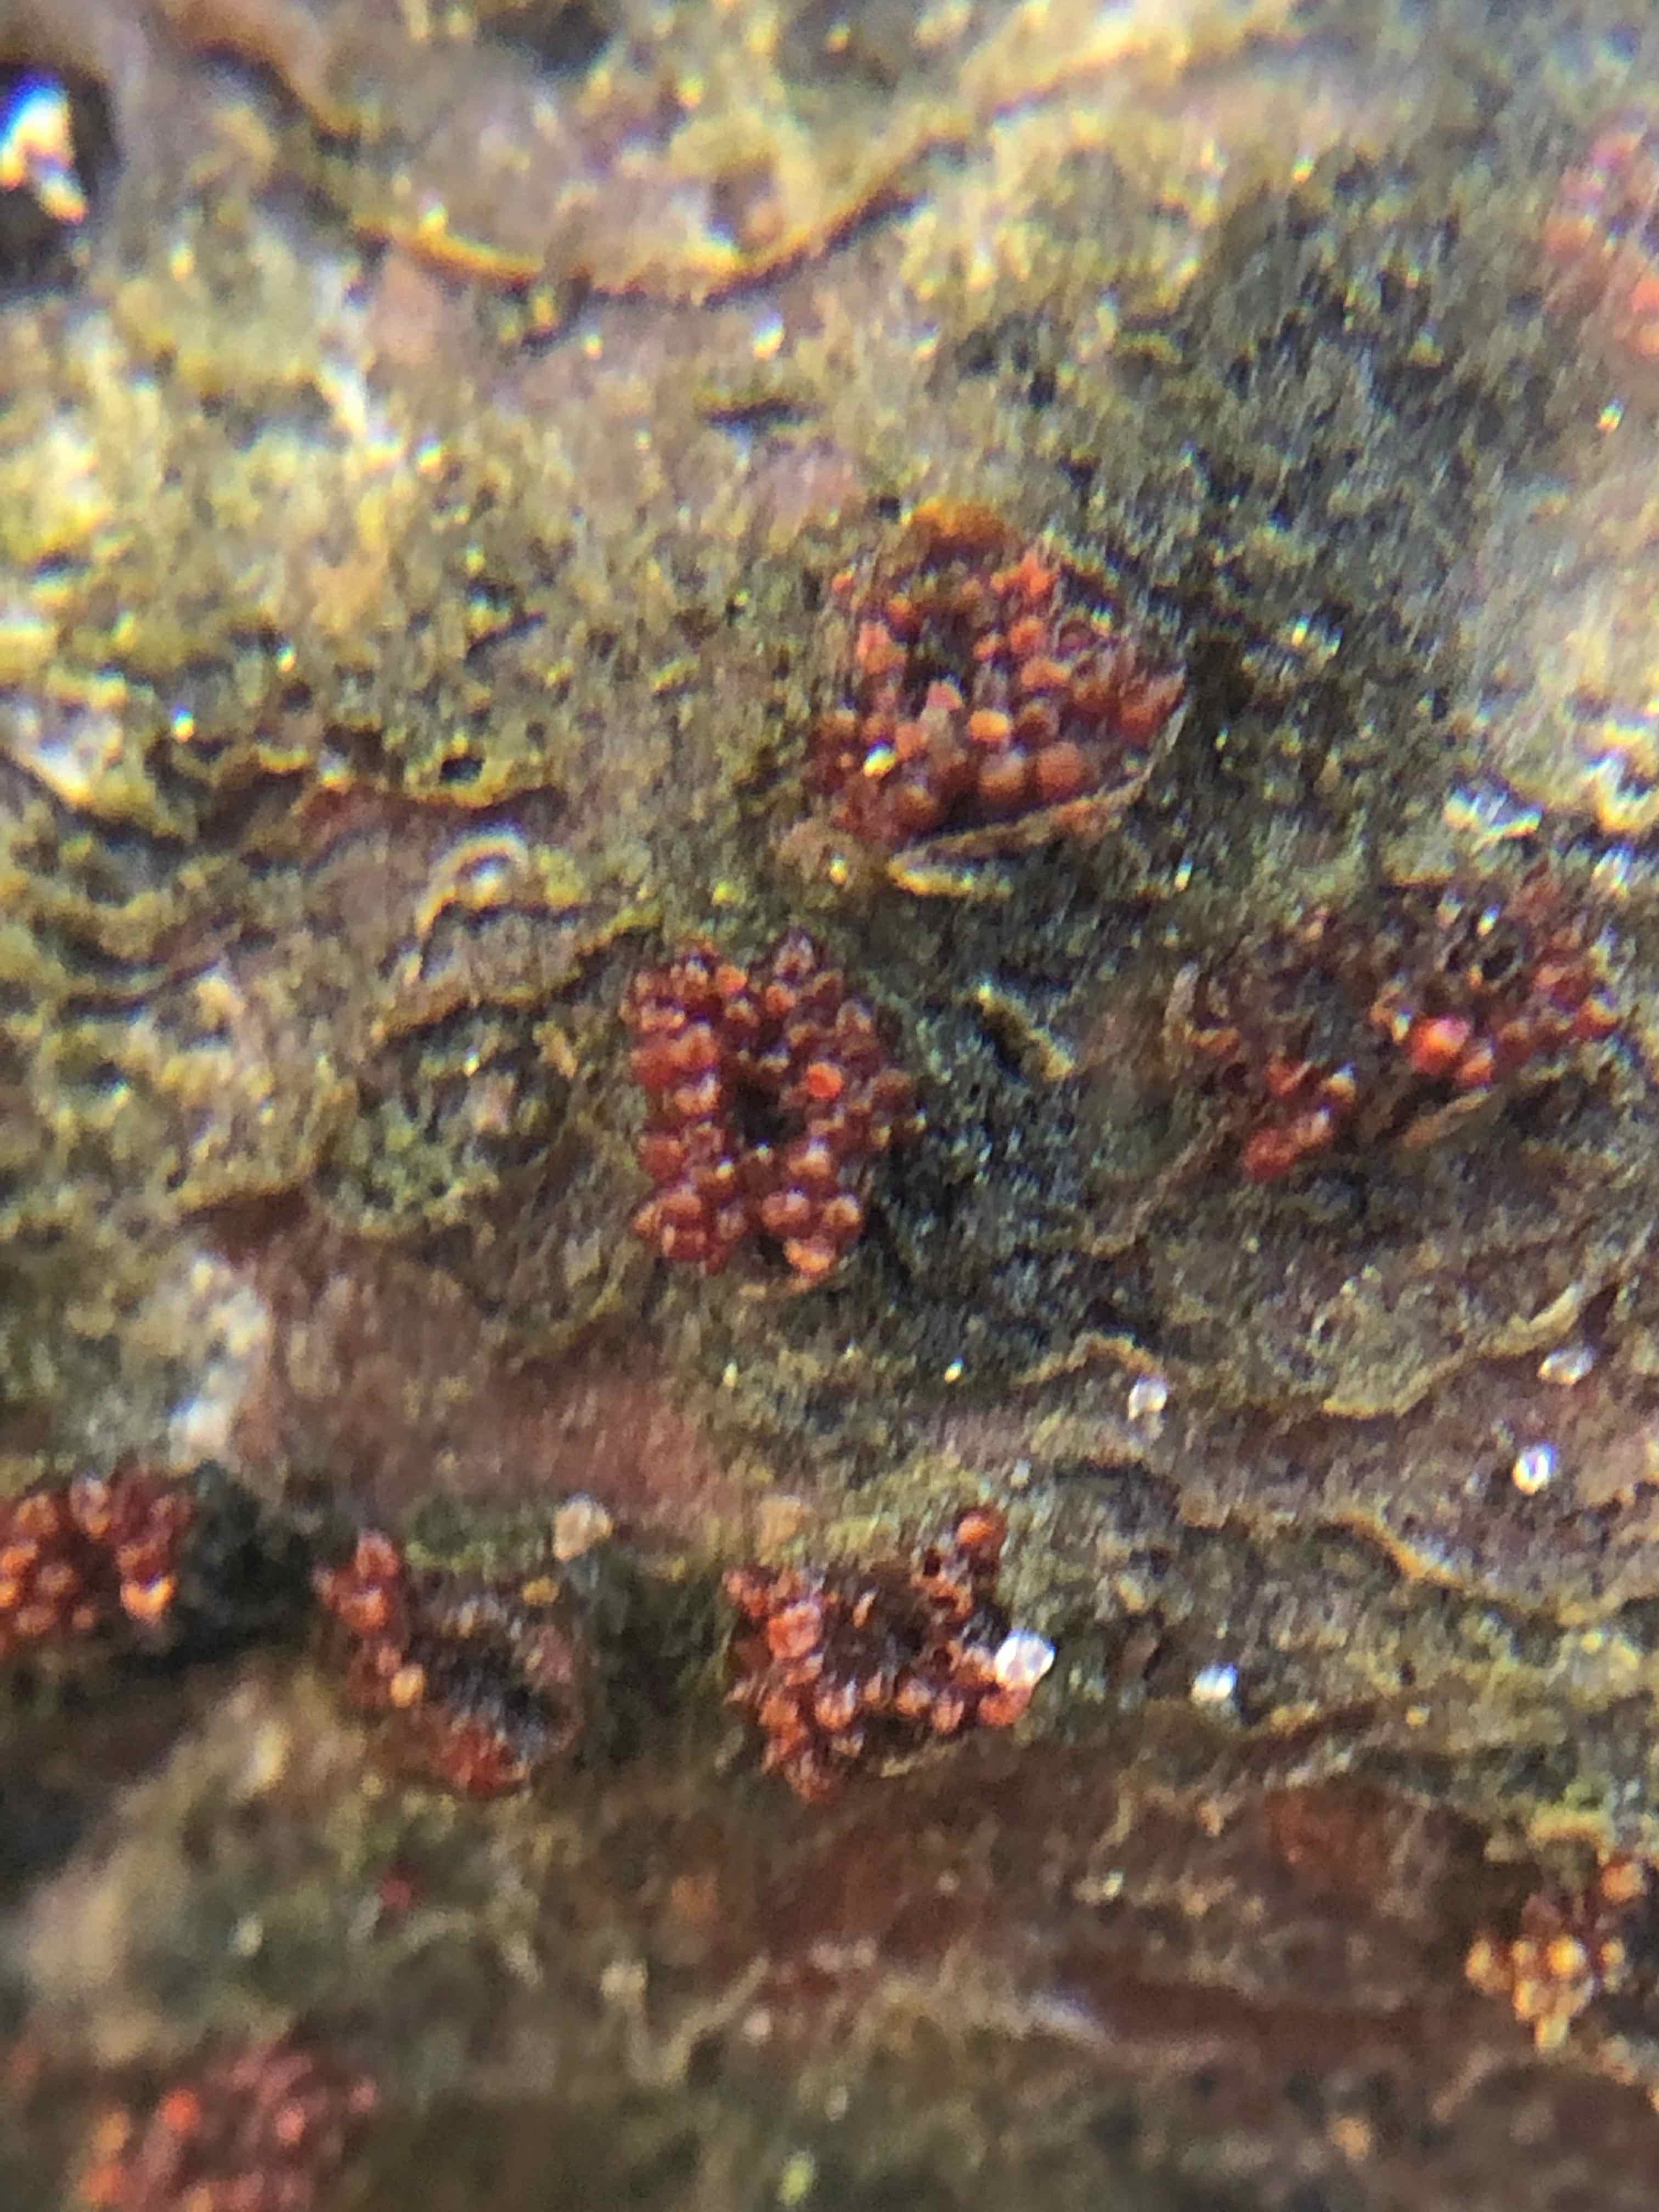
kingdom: Fungi
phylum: Ascomycota
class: Sordariomycetes
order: Hypocreales
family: Nectriaceae
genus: Neonectria
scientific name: Neonectria coccinea
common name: bøgebark-cinnobersvamp
